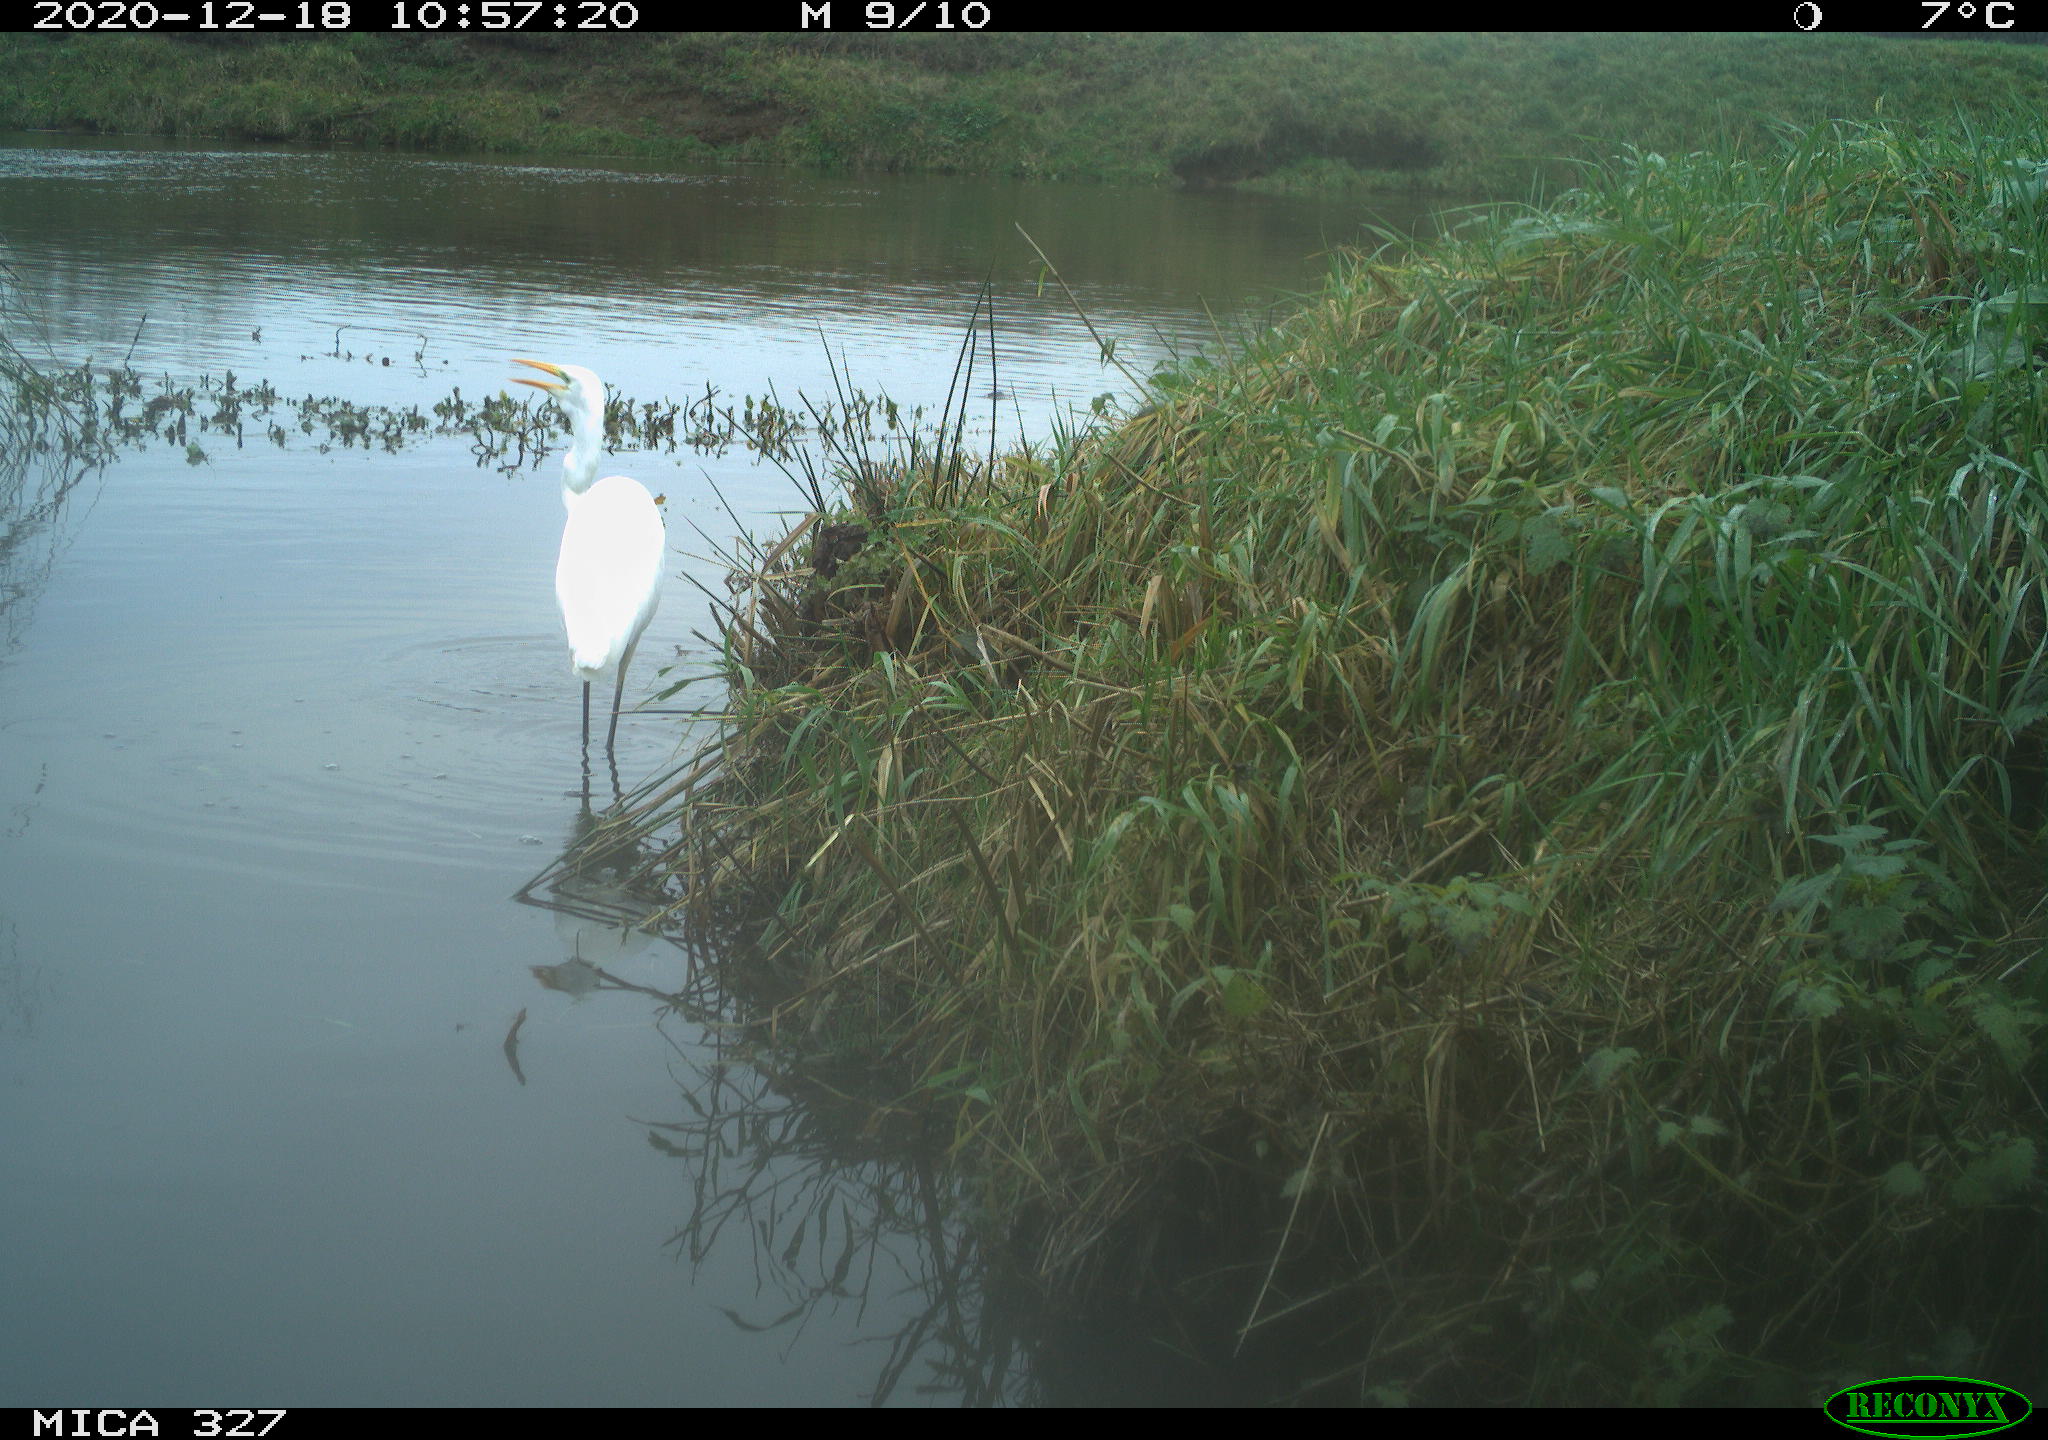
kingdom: Animalia
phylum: Chordata
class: Aves
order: Pelecaniformes
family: Ardeidae
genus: Ardea
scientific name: Ardea alba
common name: Great egret
